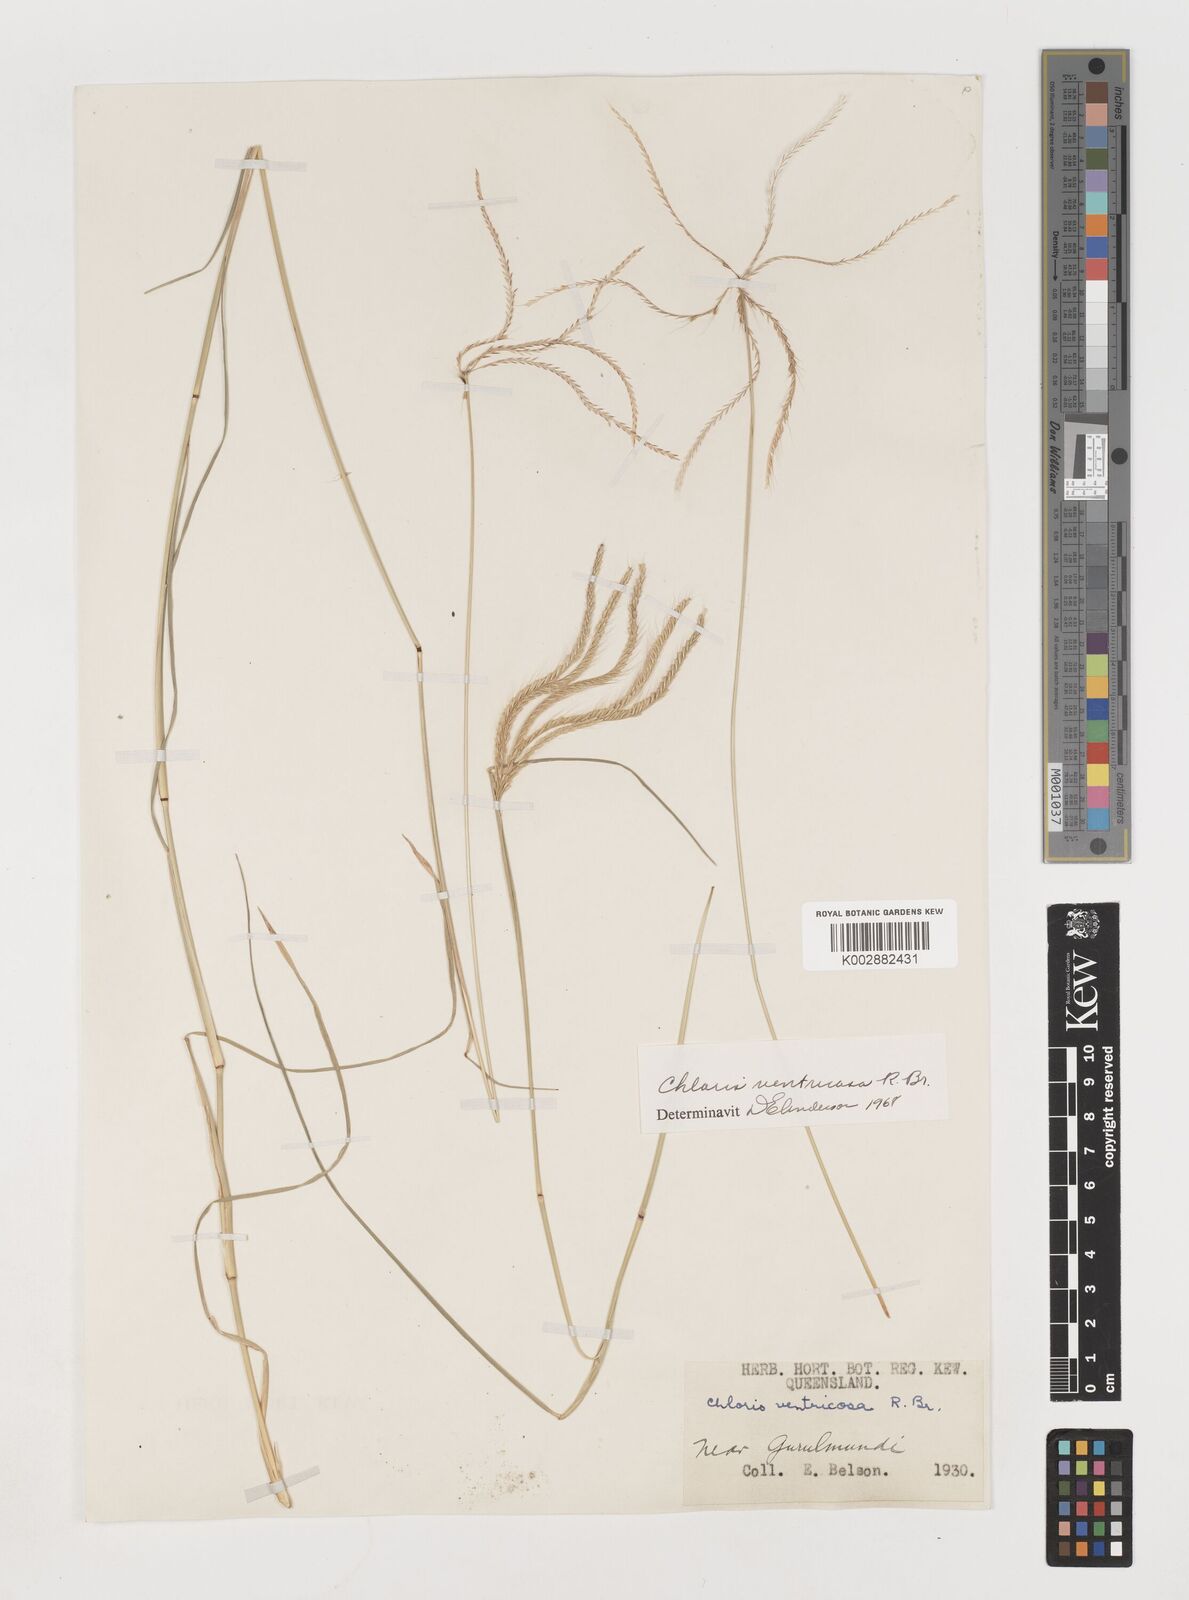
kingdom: Plantae
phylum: Tracheophyta
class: Liliopsida
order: Poales
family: Poaceae
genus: Chloris
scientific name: Chloris ventricosa
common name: Australian windmill grass
